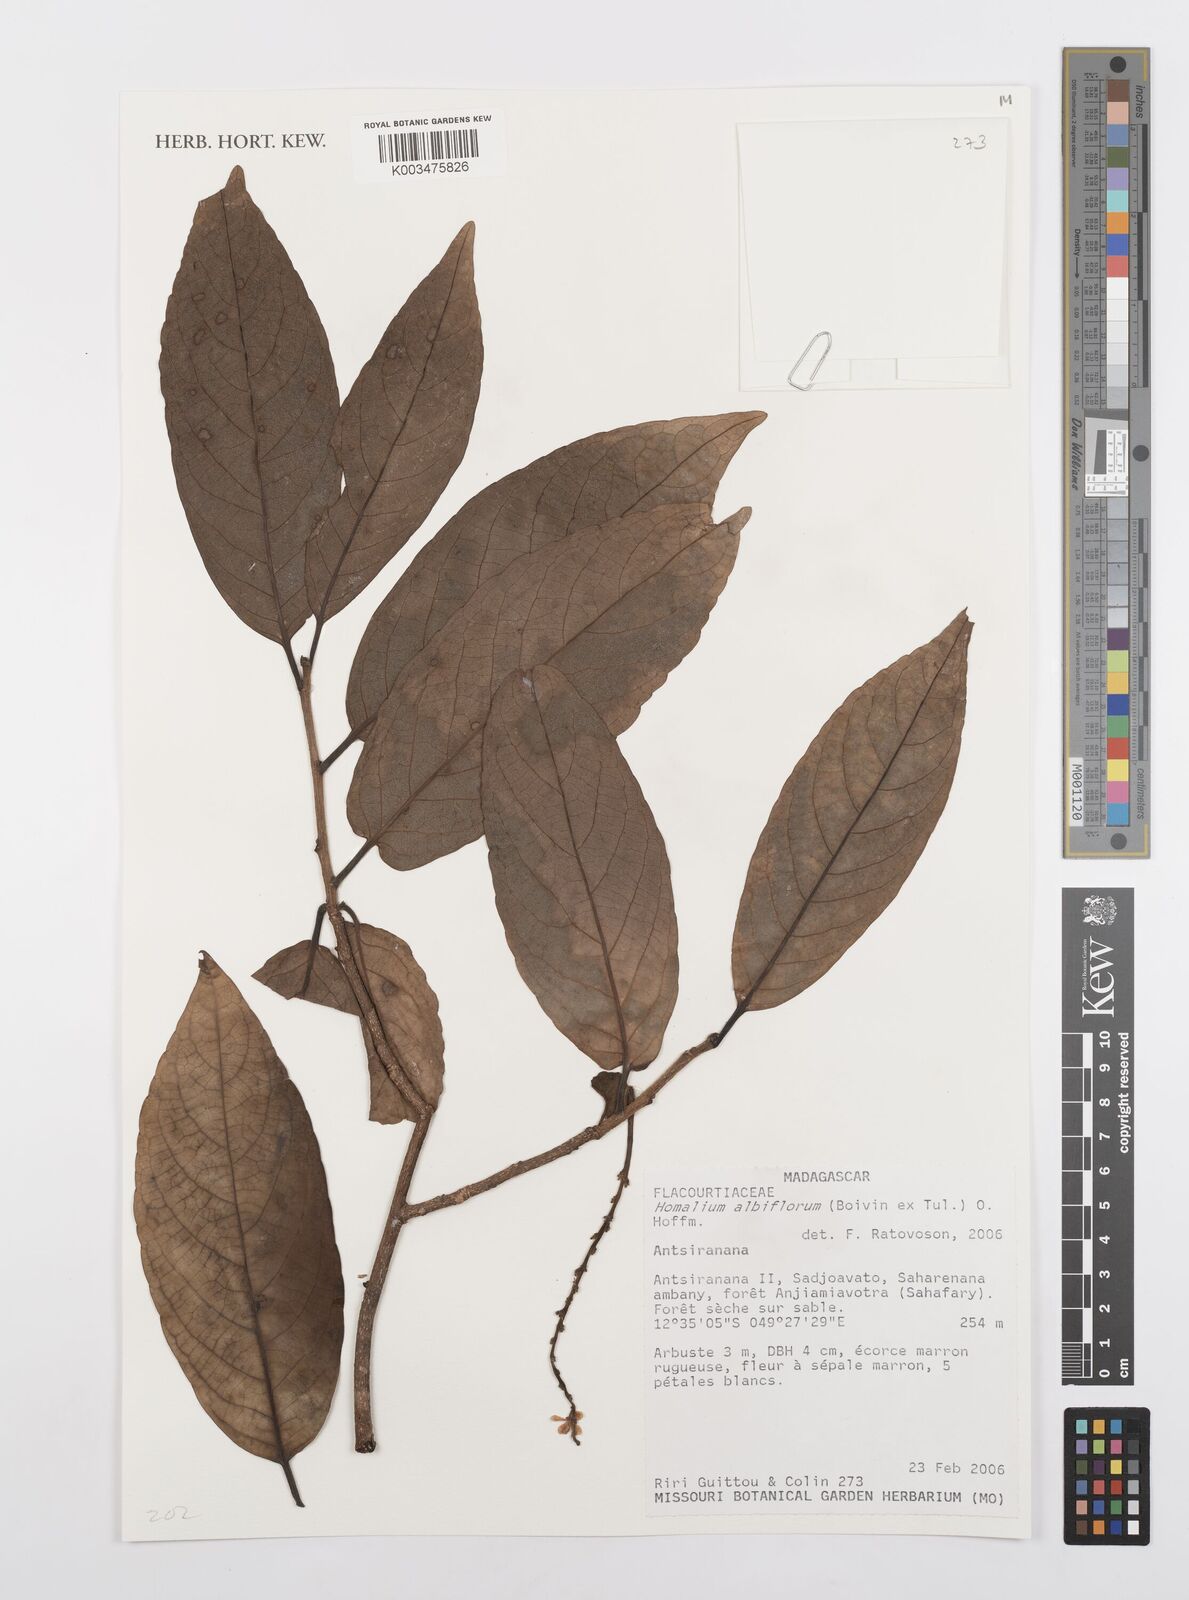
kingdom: Plantae
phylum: Tracheophyta
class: Magnoliopsida
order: Malpighiales
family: Salicaceae
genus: Homalium
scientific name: Homalium albiflorum
